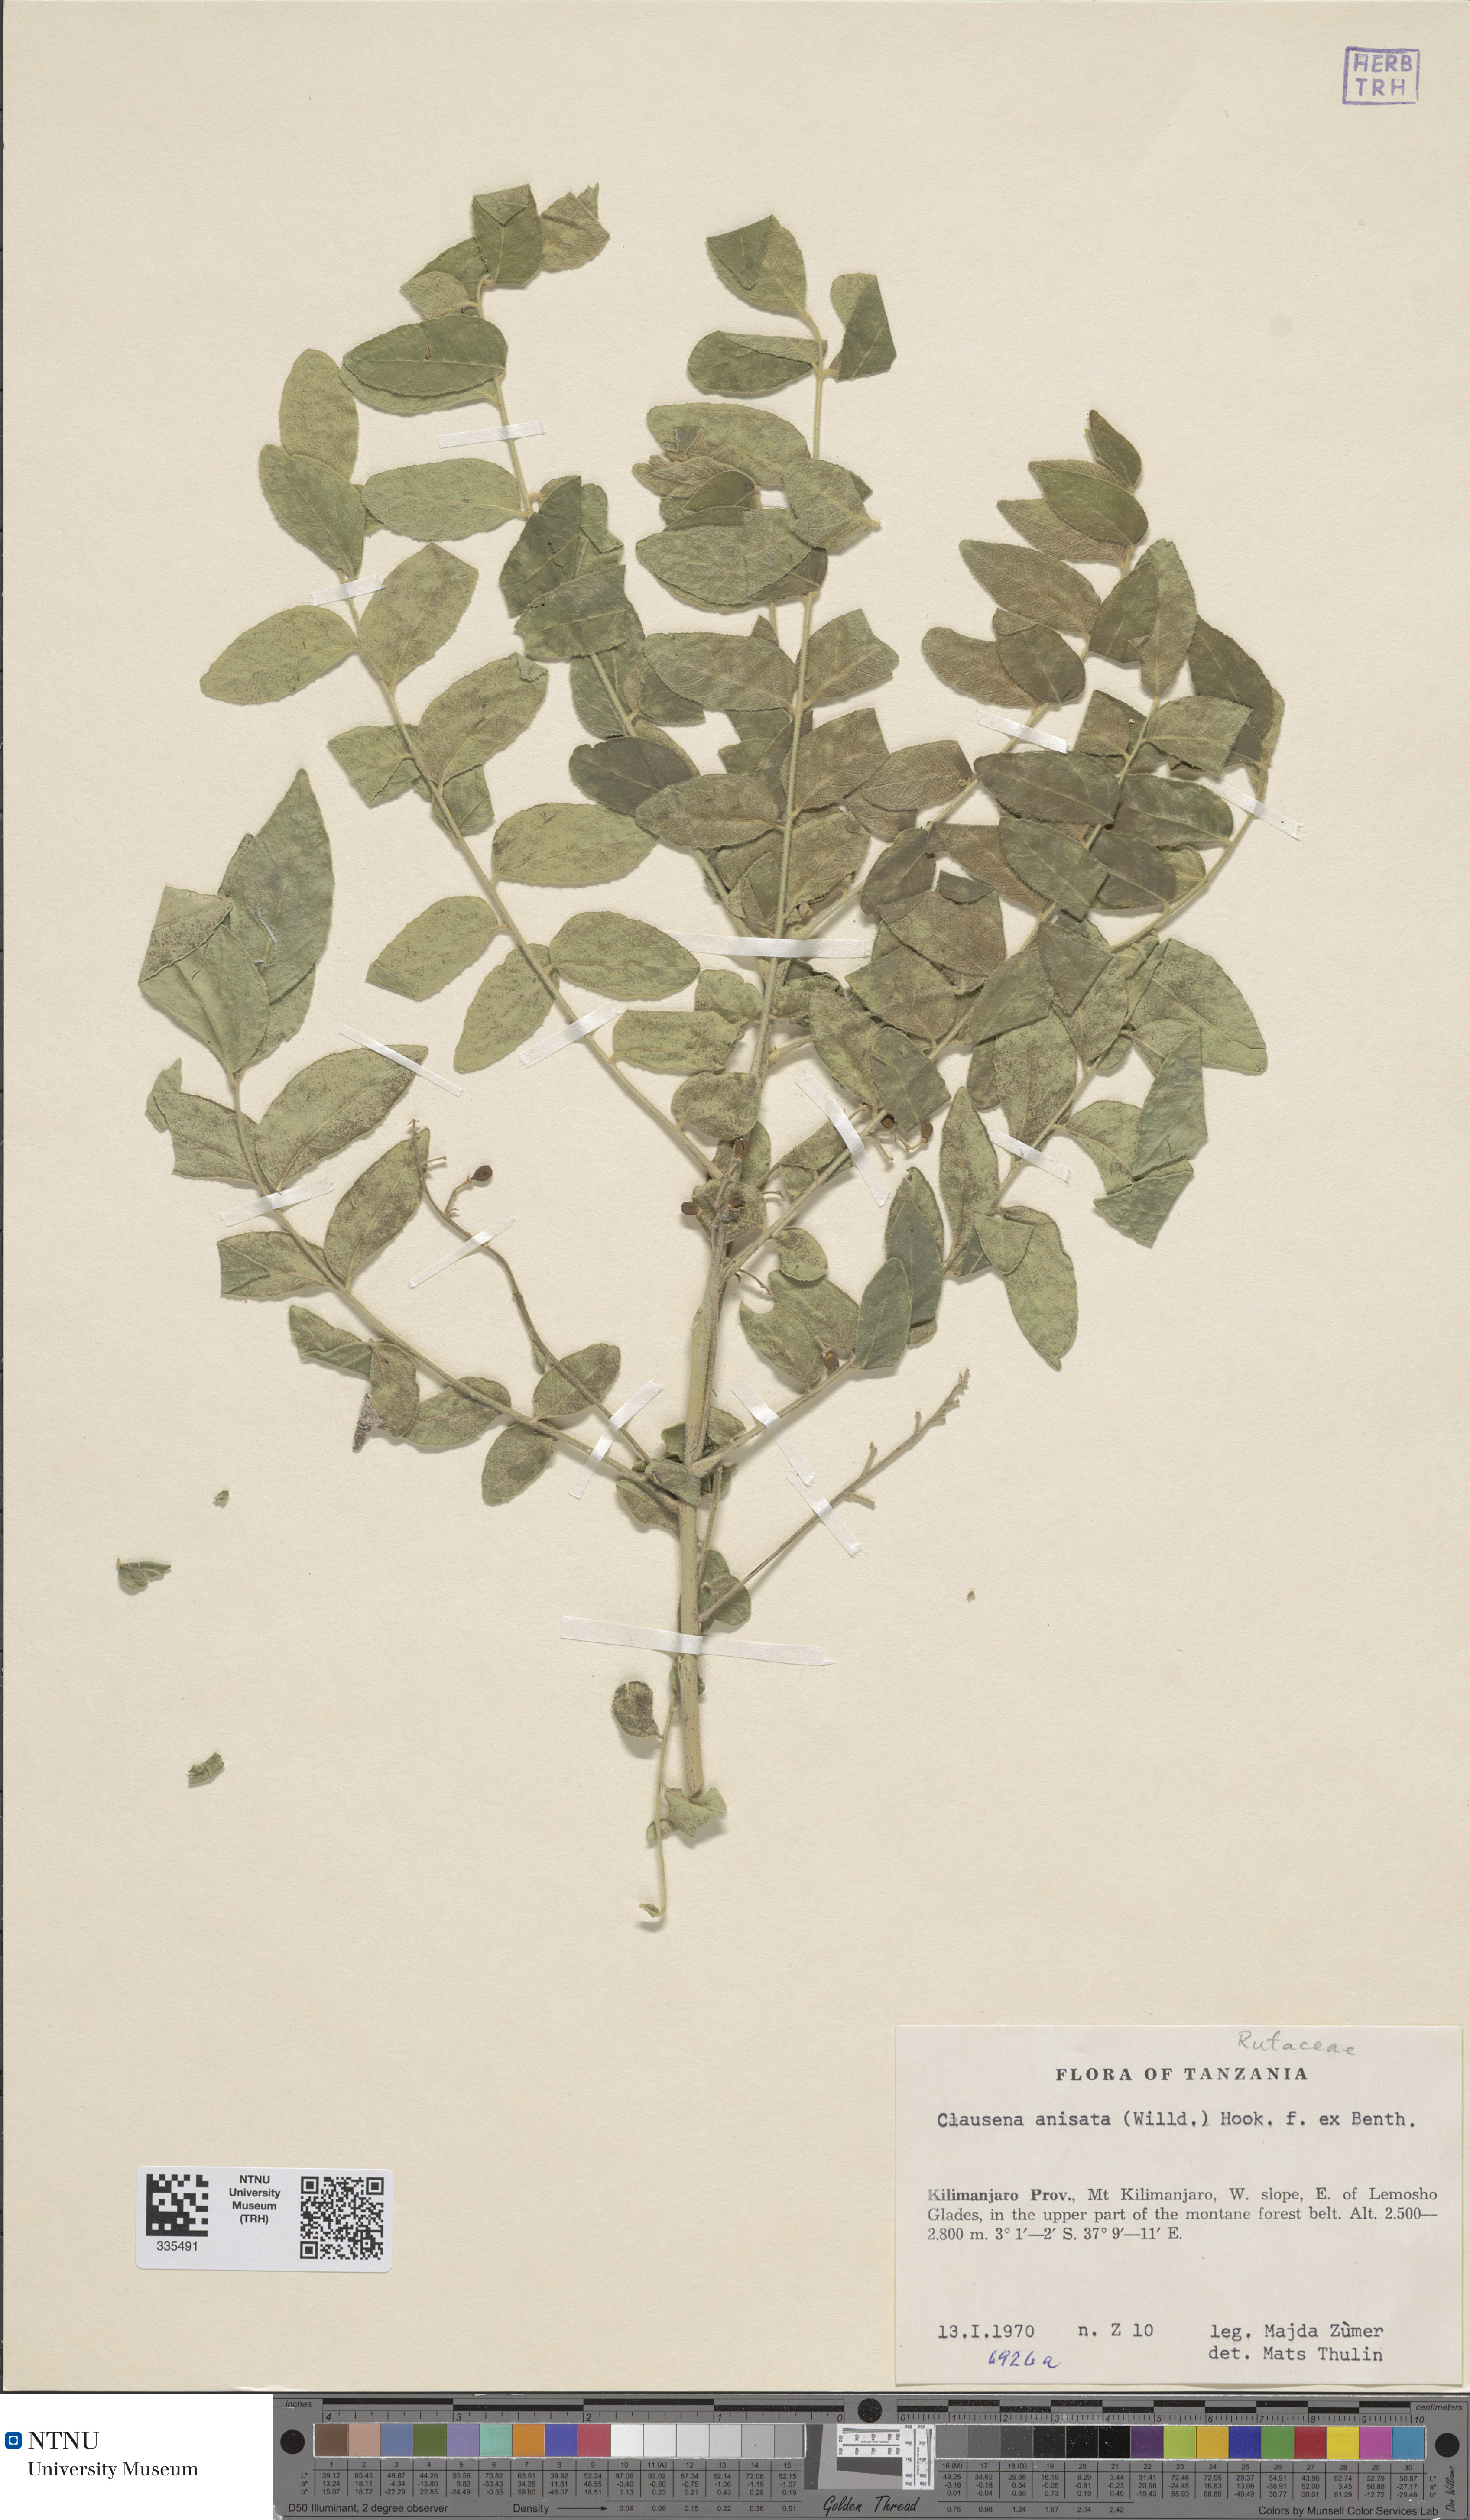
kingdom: Plantae
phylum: Tracheophyta
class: Magnoliopsida
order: Sapindales
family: Rutaceae
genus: Clausena
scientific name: Clausena anisata
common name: Horsewood
